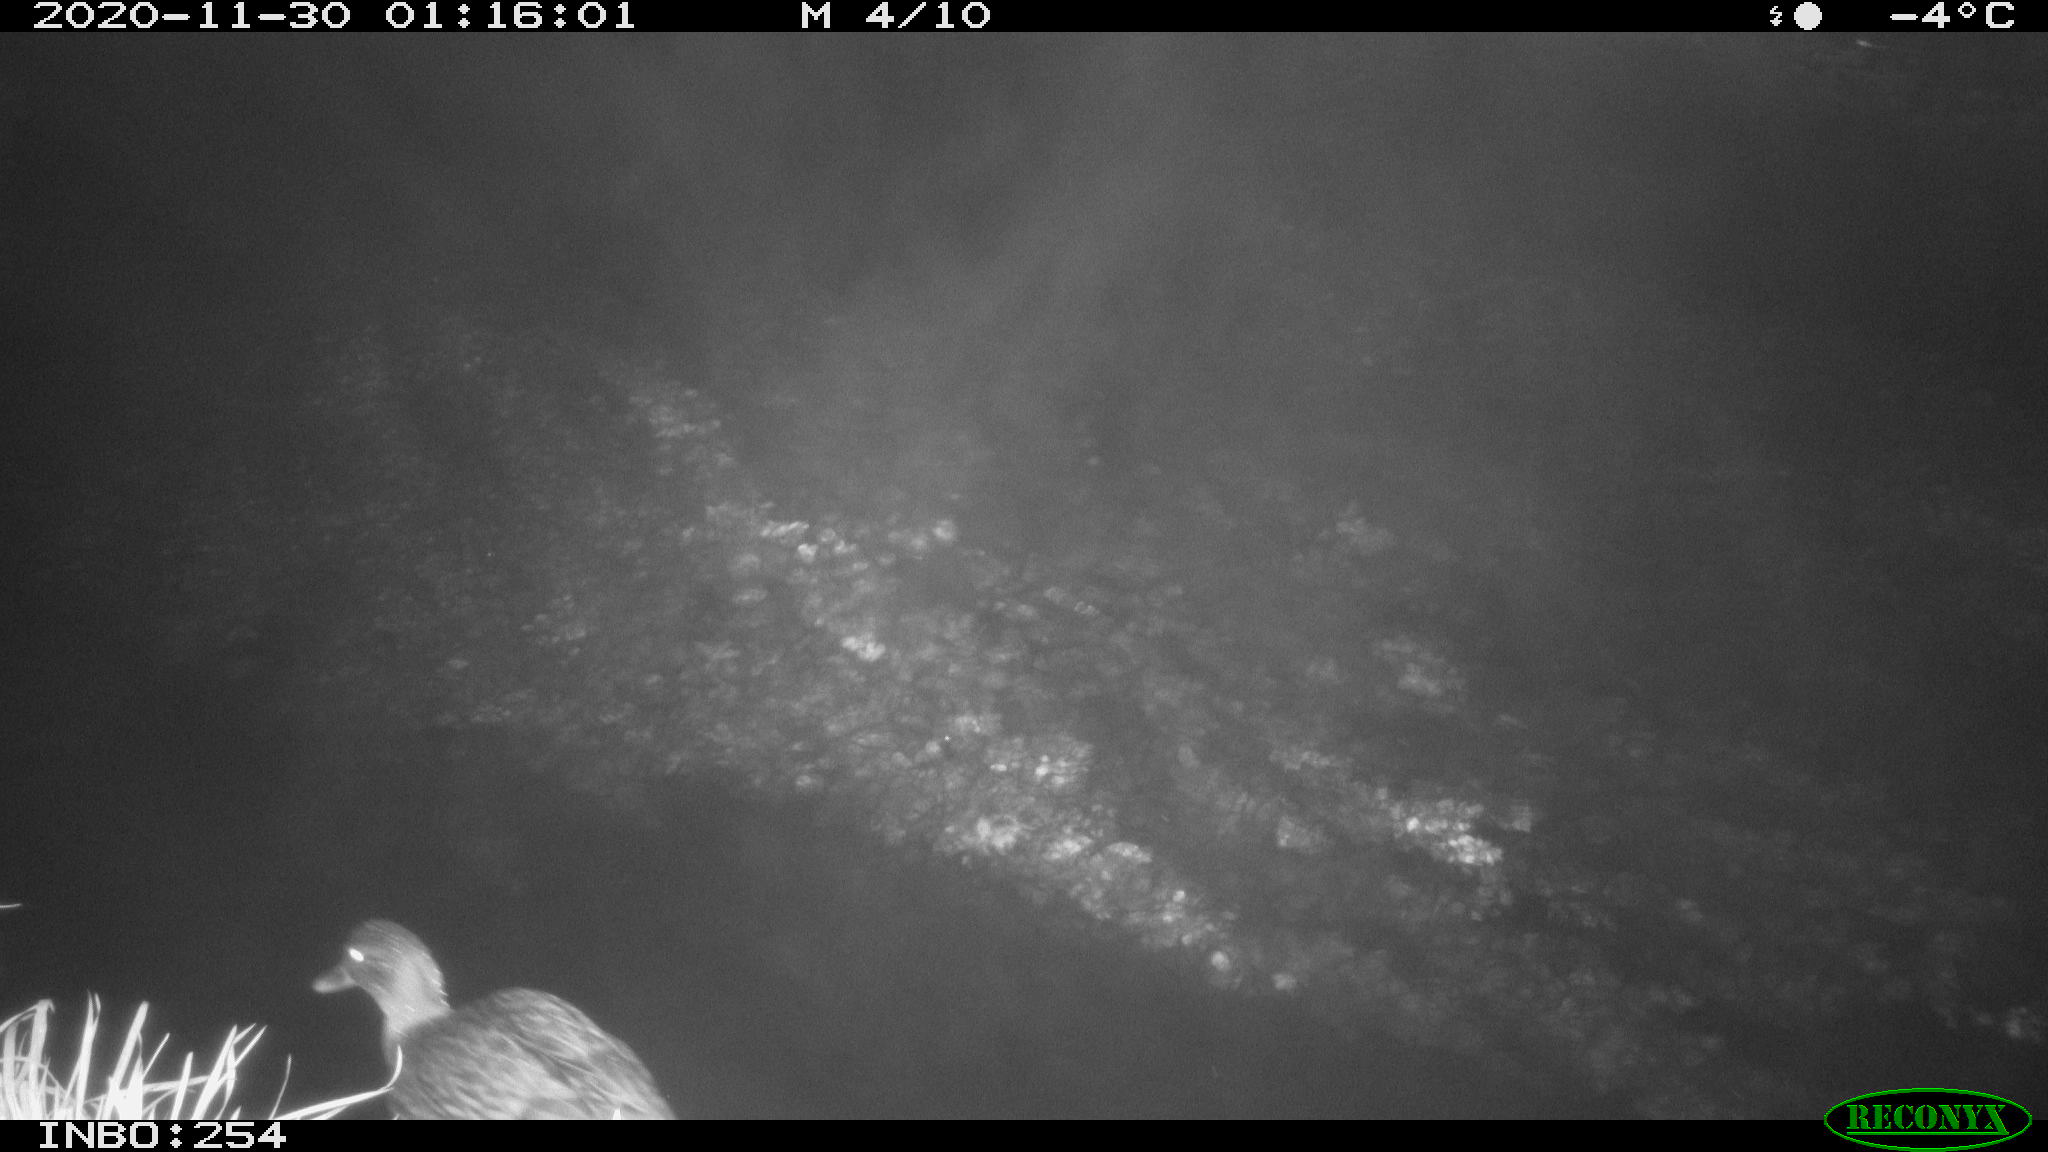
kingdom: Animalia
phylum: Chordata
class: Aves
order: Anseriformes
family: Anatidae
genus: Anas
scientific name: Anas platyrhynchos
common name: Mallard
